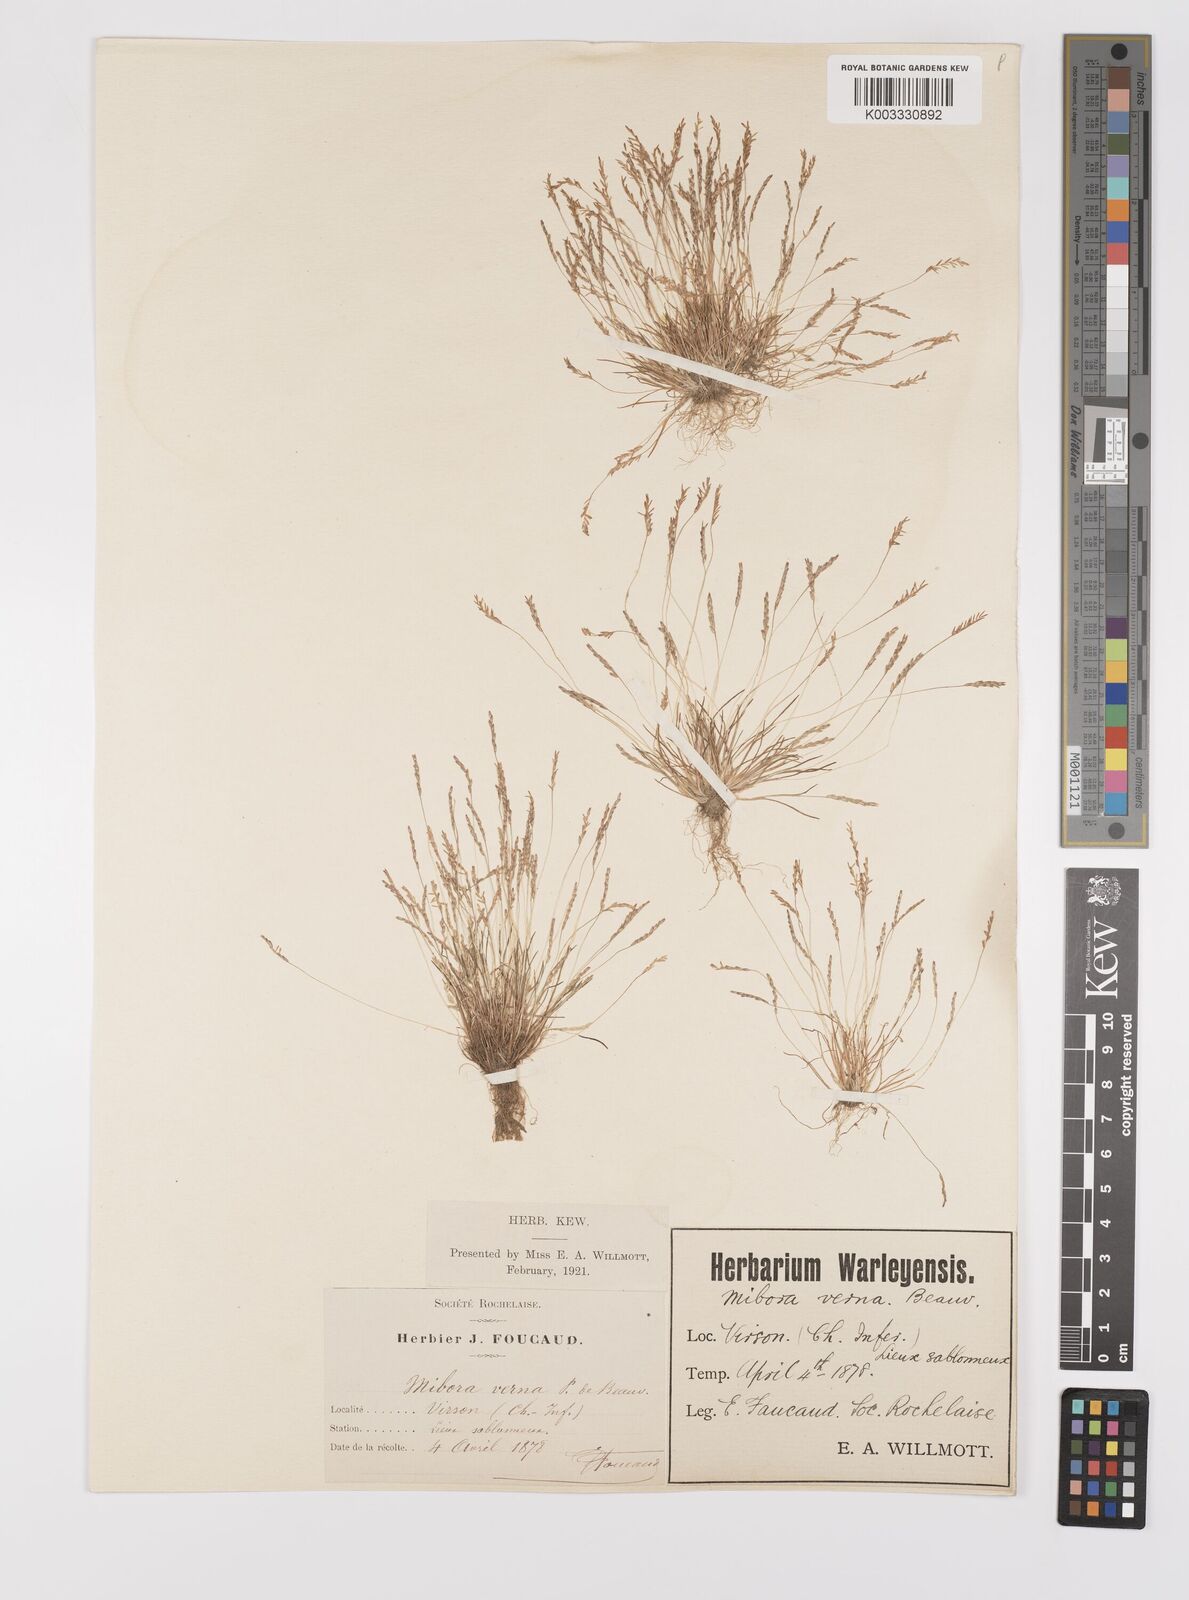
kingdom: Plantae
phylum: Tracheophyta
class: Liliopsida
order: Poales
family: Poaceae
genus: Mibora
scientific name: Mibora minima
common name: Early sand-grass
